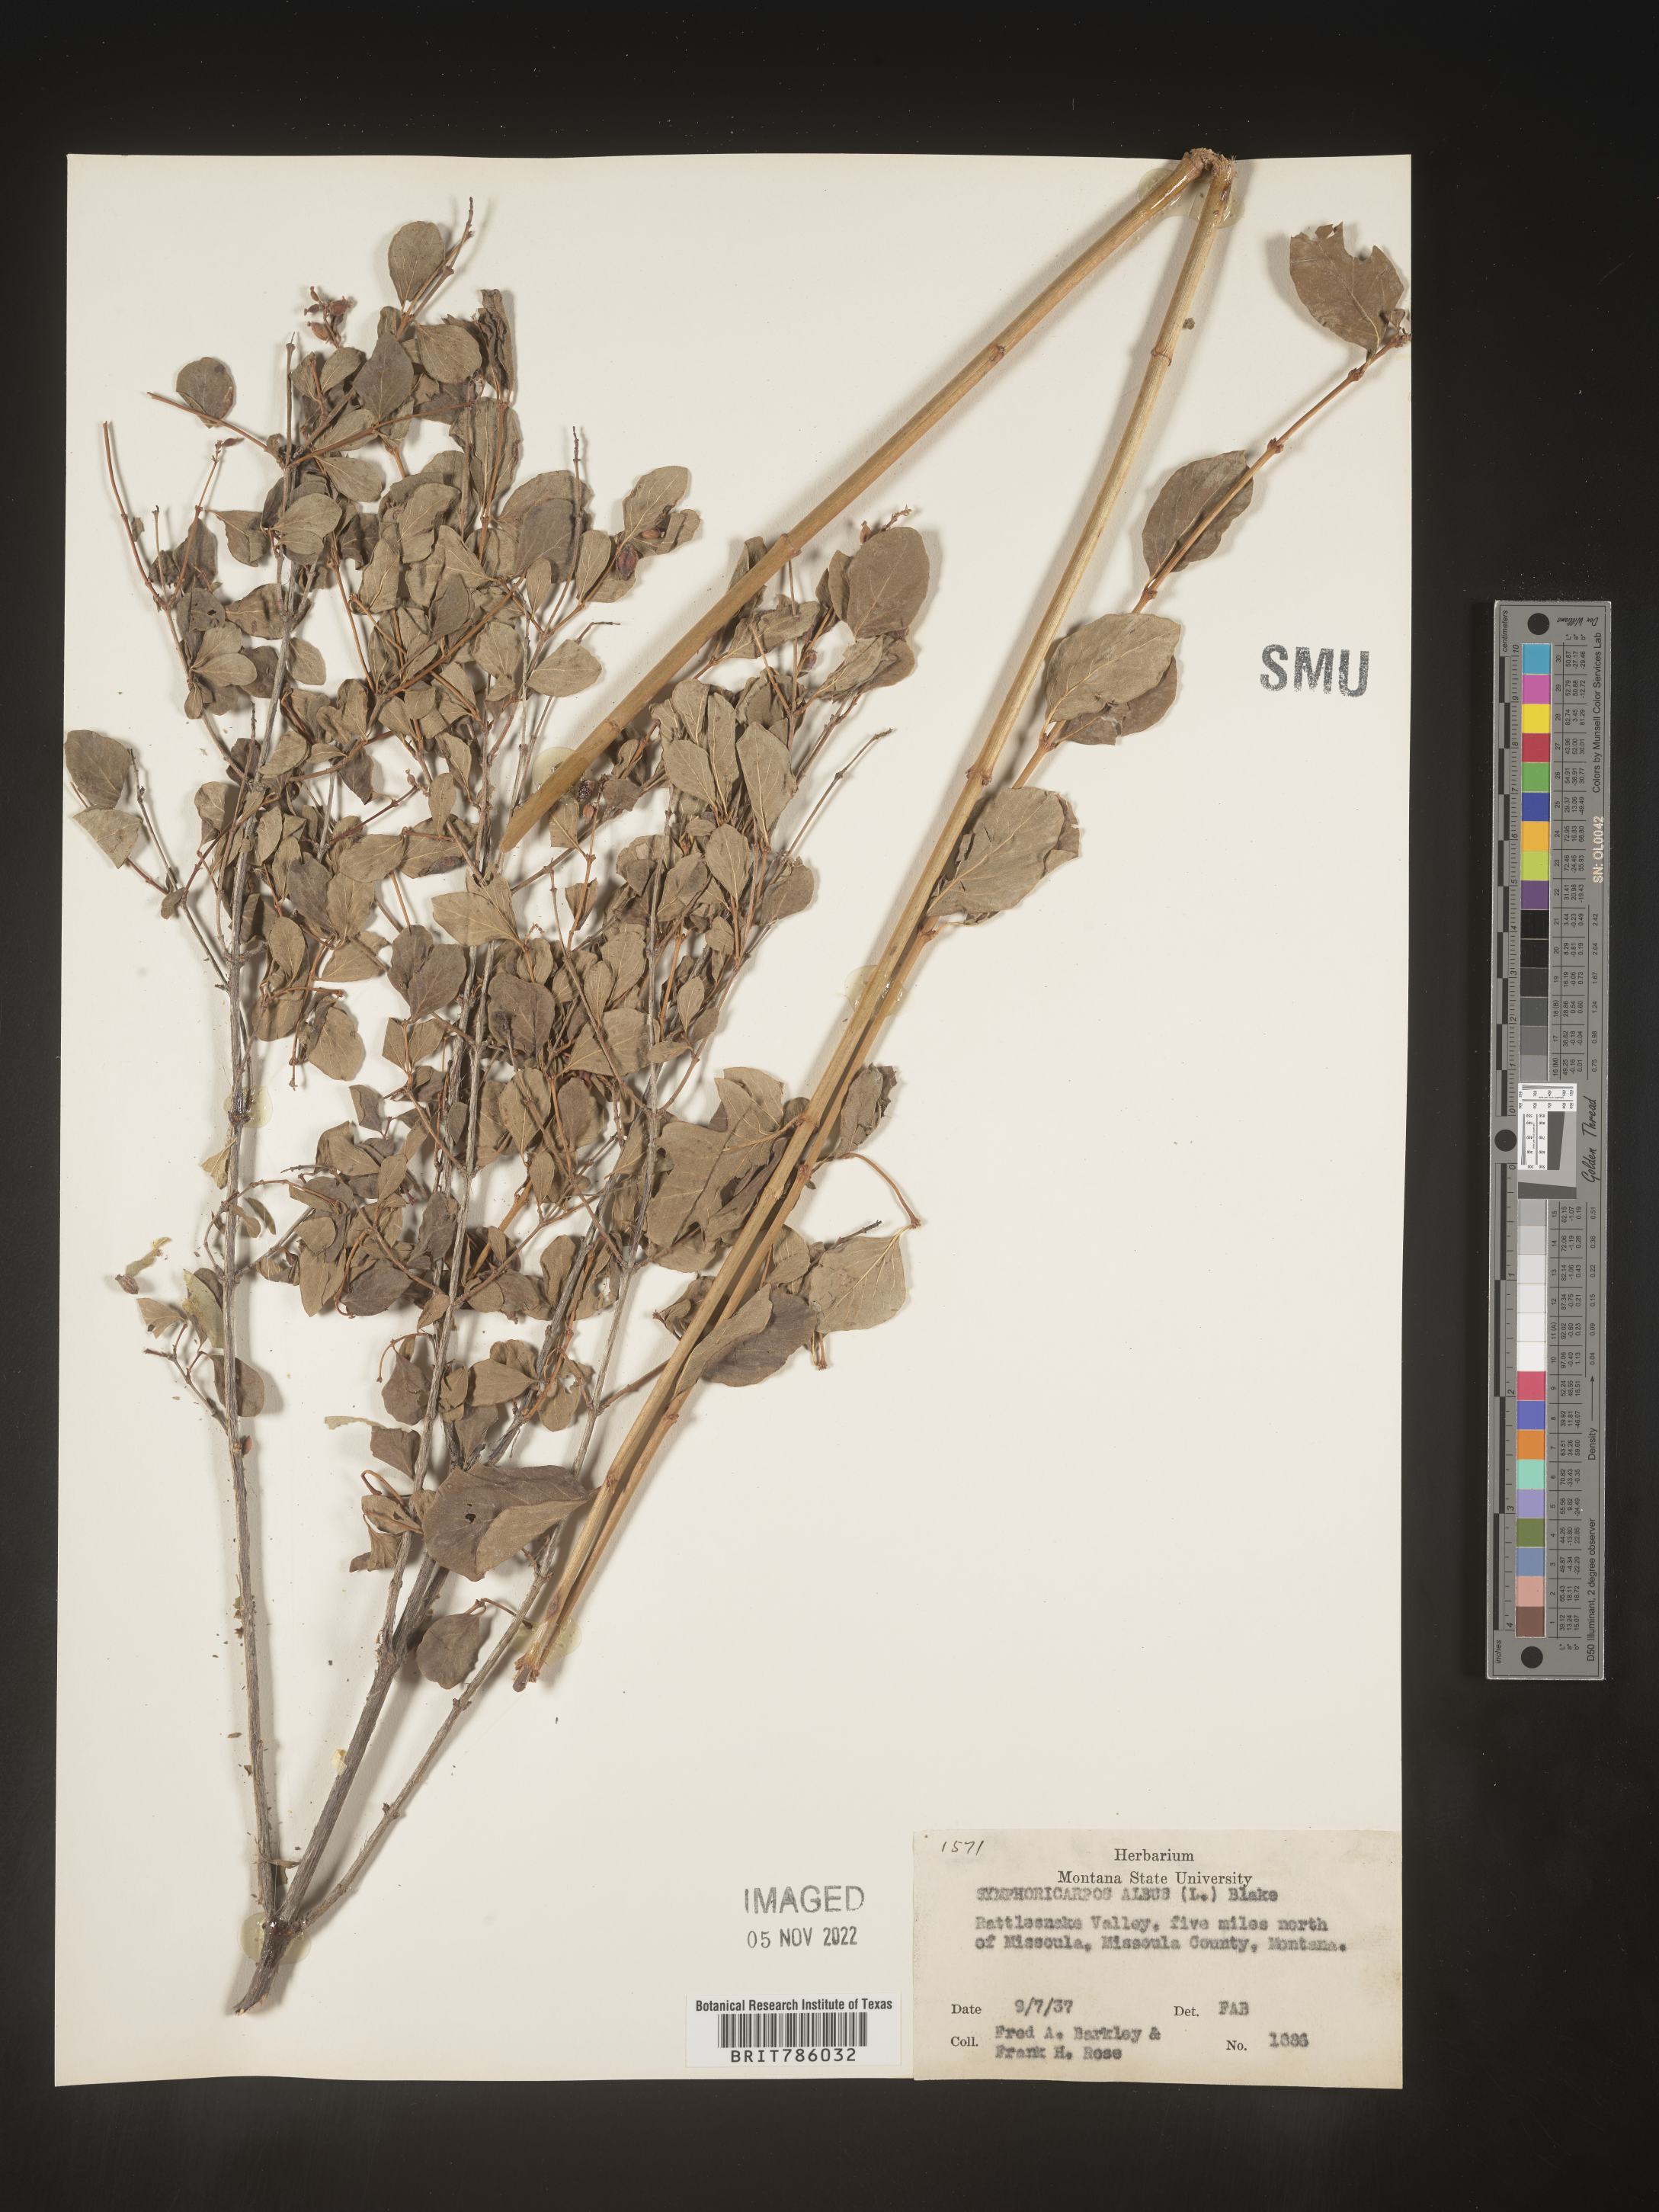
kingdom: Plantae
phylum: Tracheophyta
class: Magnoliopsida
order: Dipsacales
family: Caprifoliaceae
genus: Symphoricarpos
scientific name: Symphoricarpos albus
